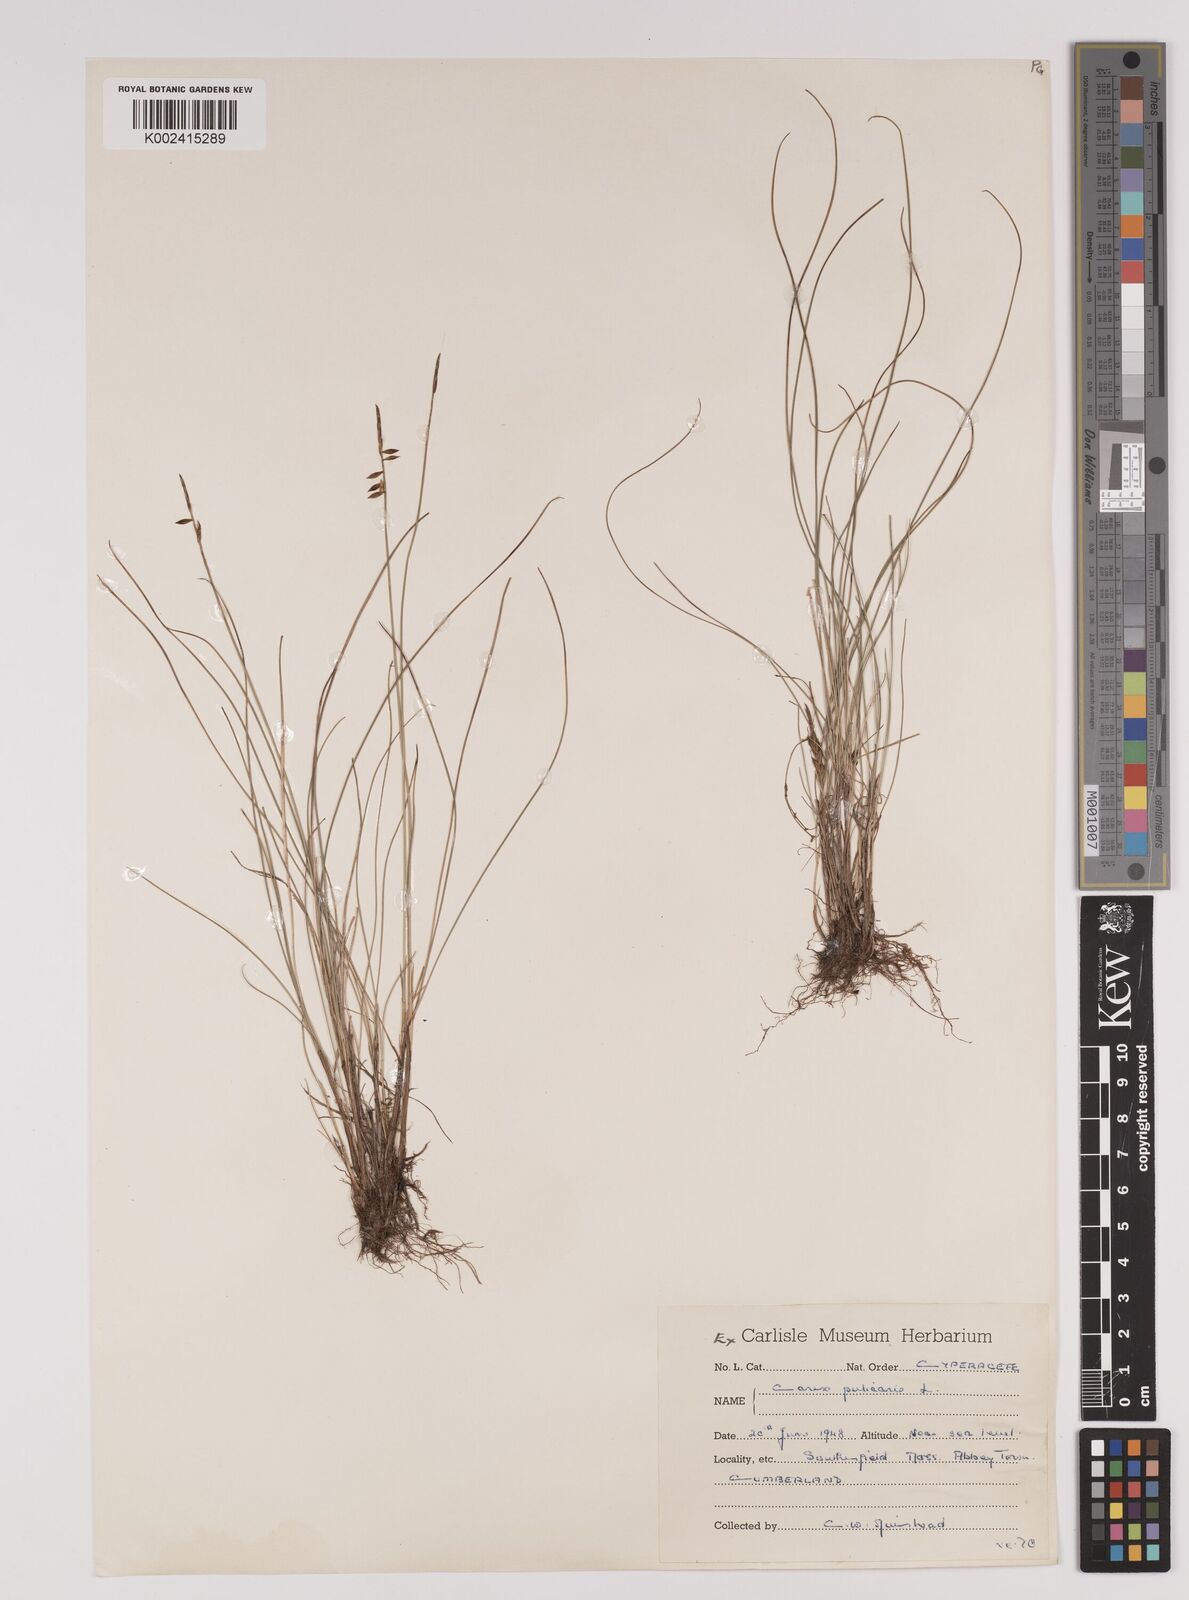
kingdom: Plantae
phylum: Tracheophyta
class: Liliopsida
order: Poales
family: Cyperaceae
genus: Carex
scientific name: Carex pulicaris
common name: Flea sedge
